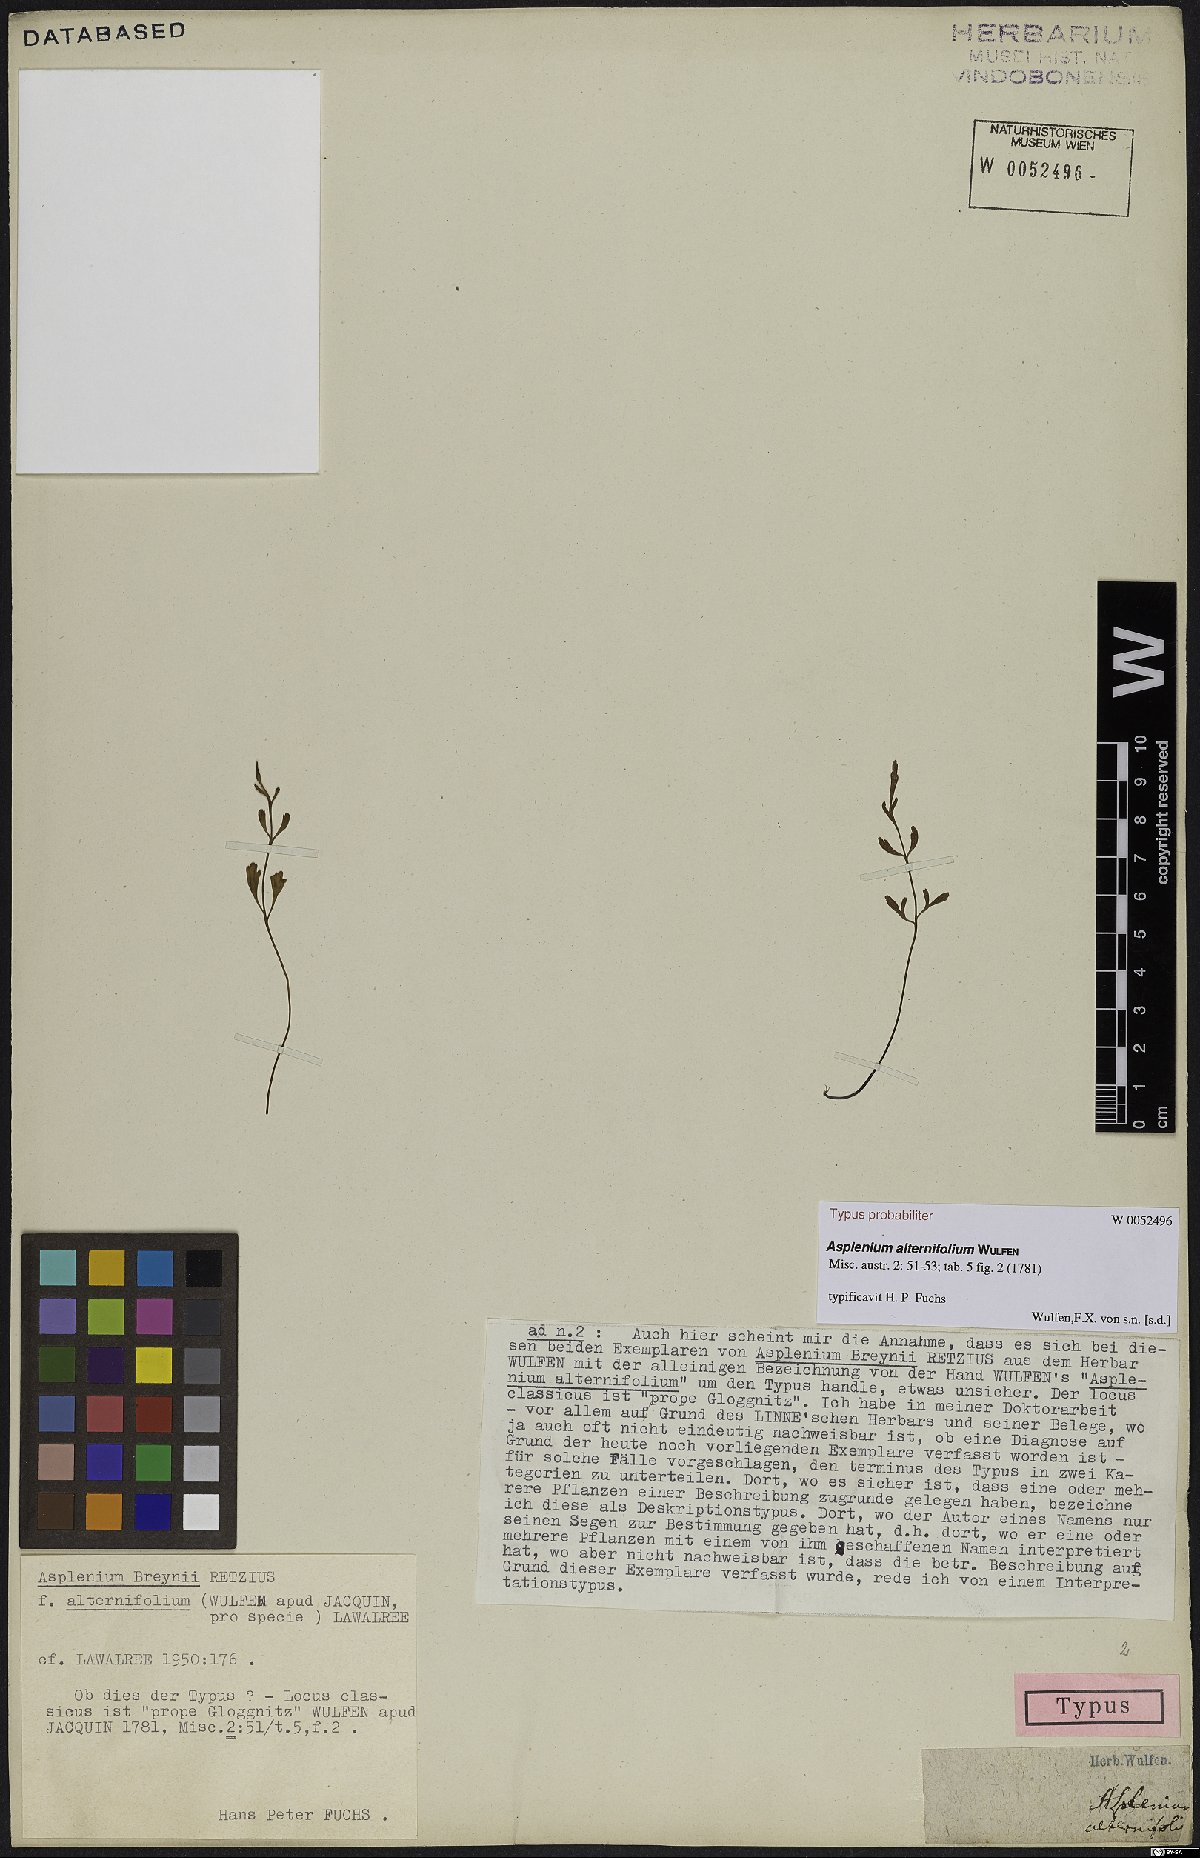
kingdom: Plantae
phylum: Tracheophyta
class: Polypodiopsida
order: Polypodiales
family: Aspleniaceae
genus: Asplenium
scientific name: Asplenium alternifolium
